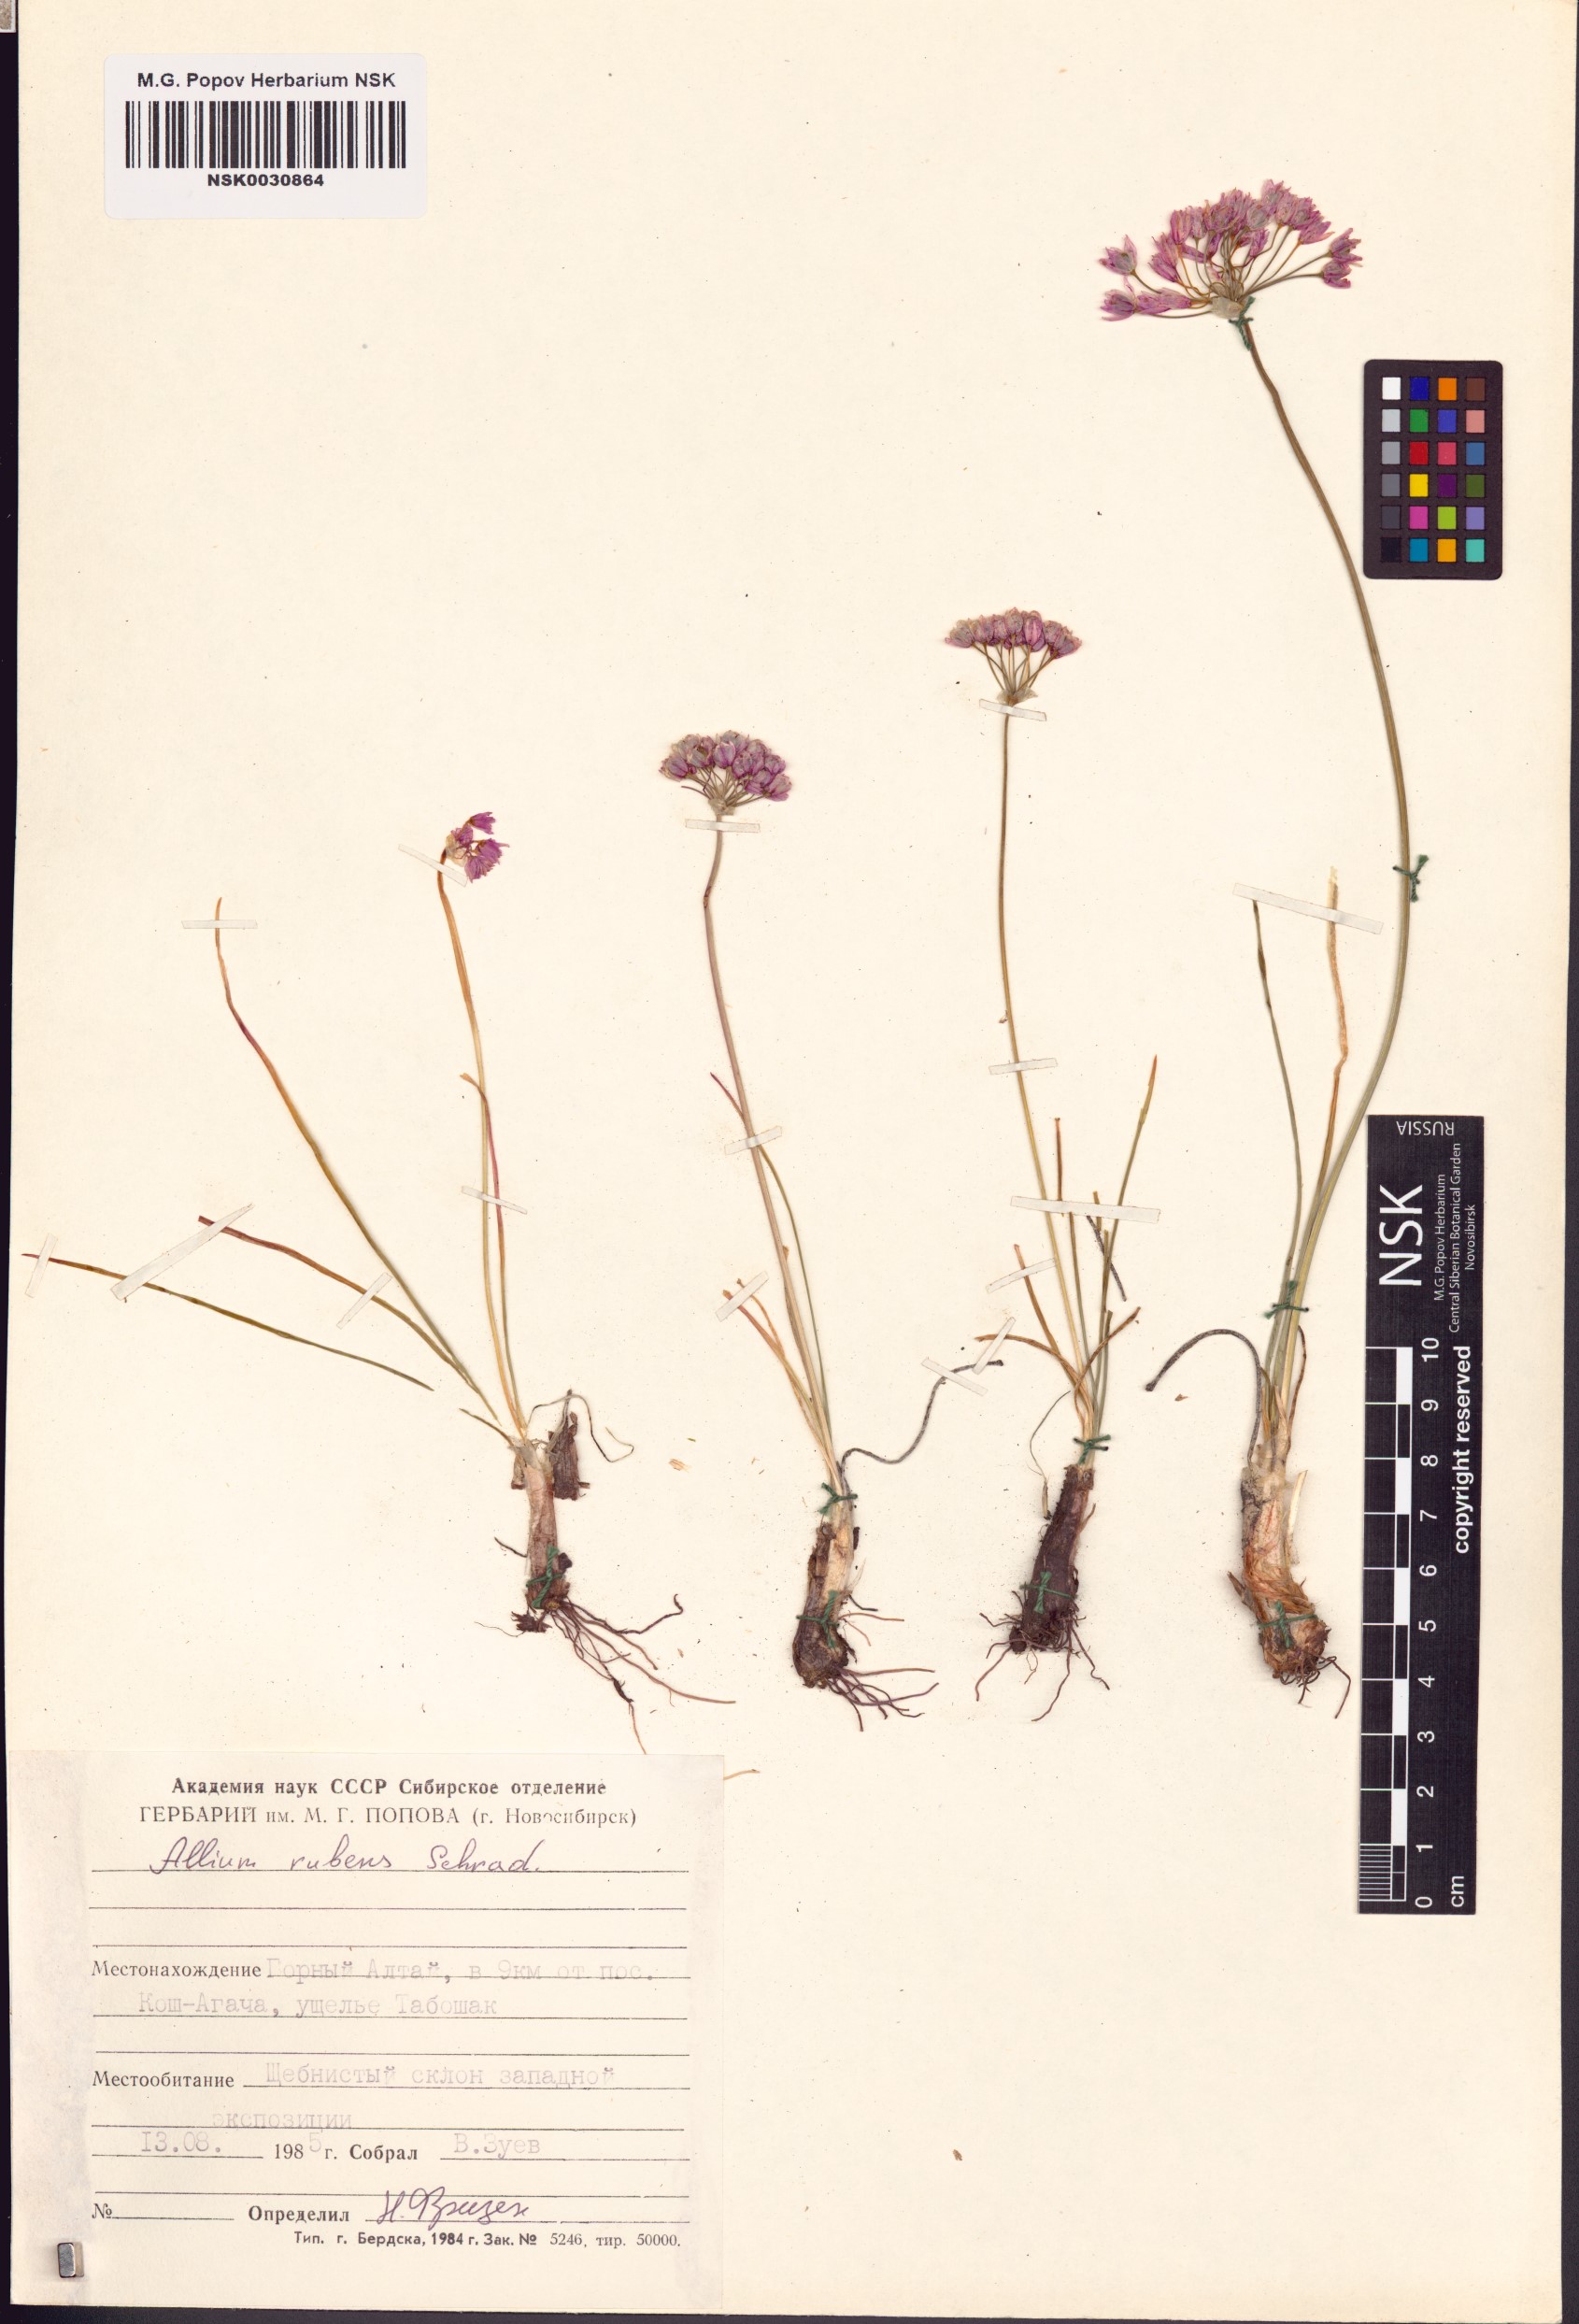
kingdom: Plantae
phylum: Tracheophyta
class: Liliopsida
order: Asparagales
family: Amaryllidaceae
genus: Allium
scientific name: Allium rubens
